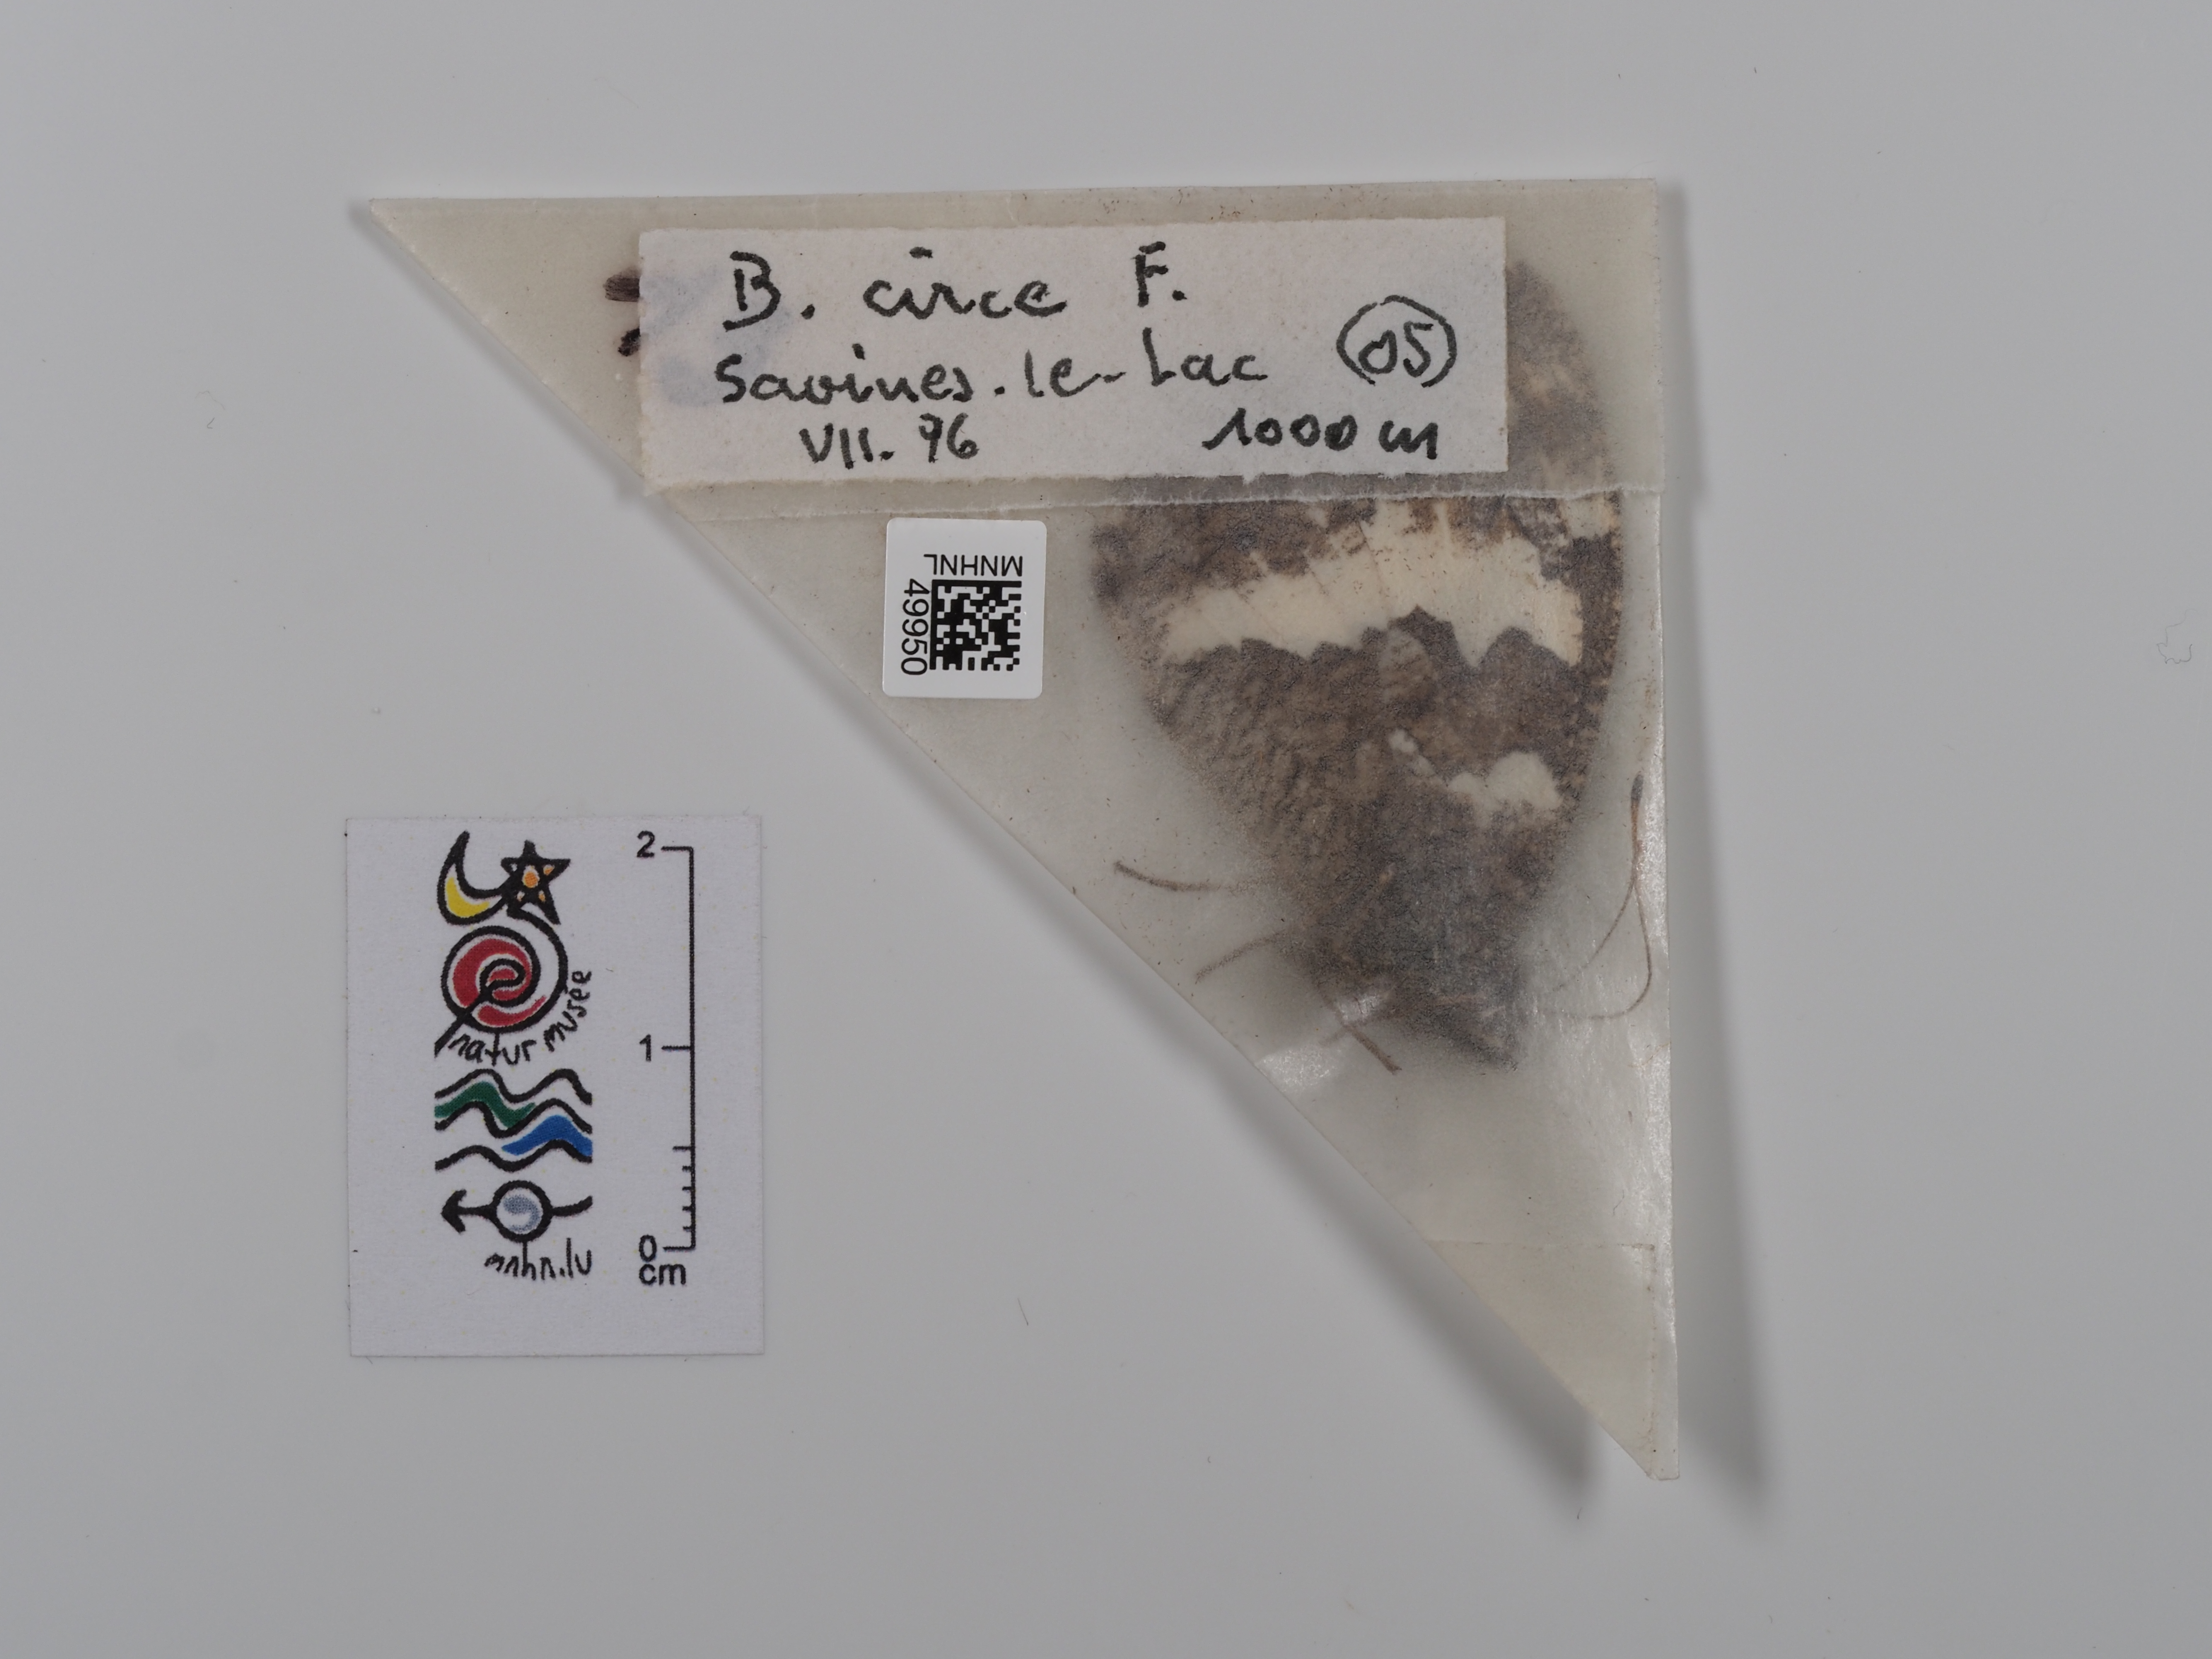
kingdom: Animalia
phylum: Arthropoda
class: Insecta
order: Lepidoptera
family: Lycaenidae
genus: Loweia
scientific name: Loweia tityrus
